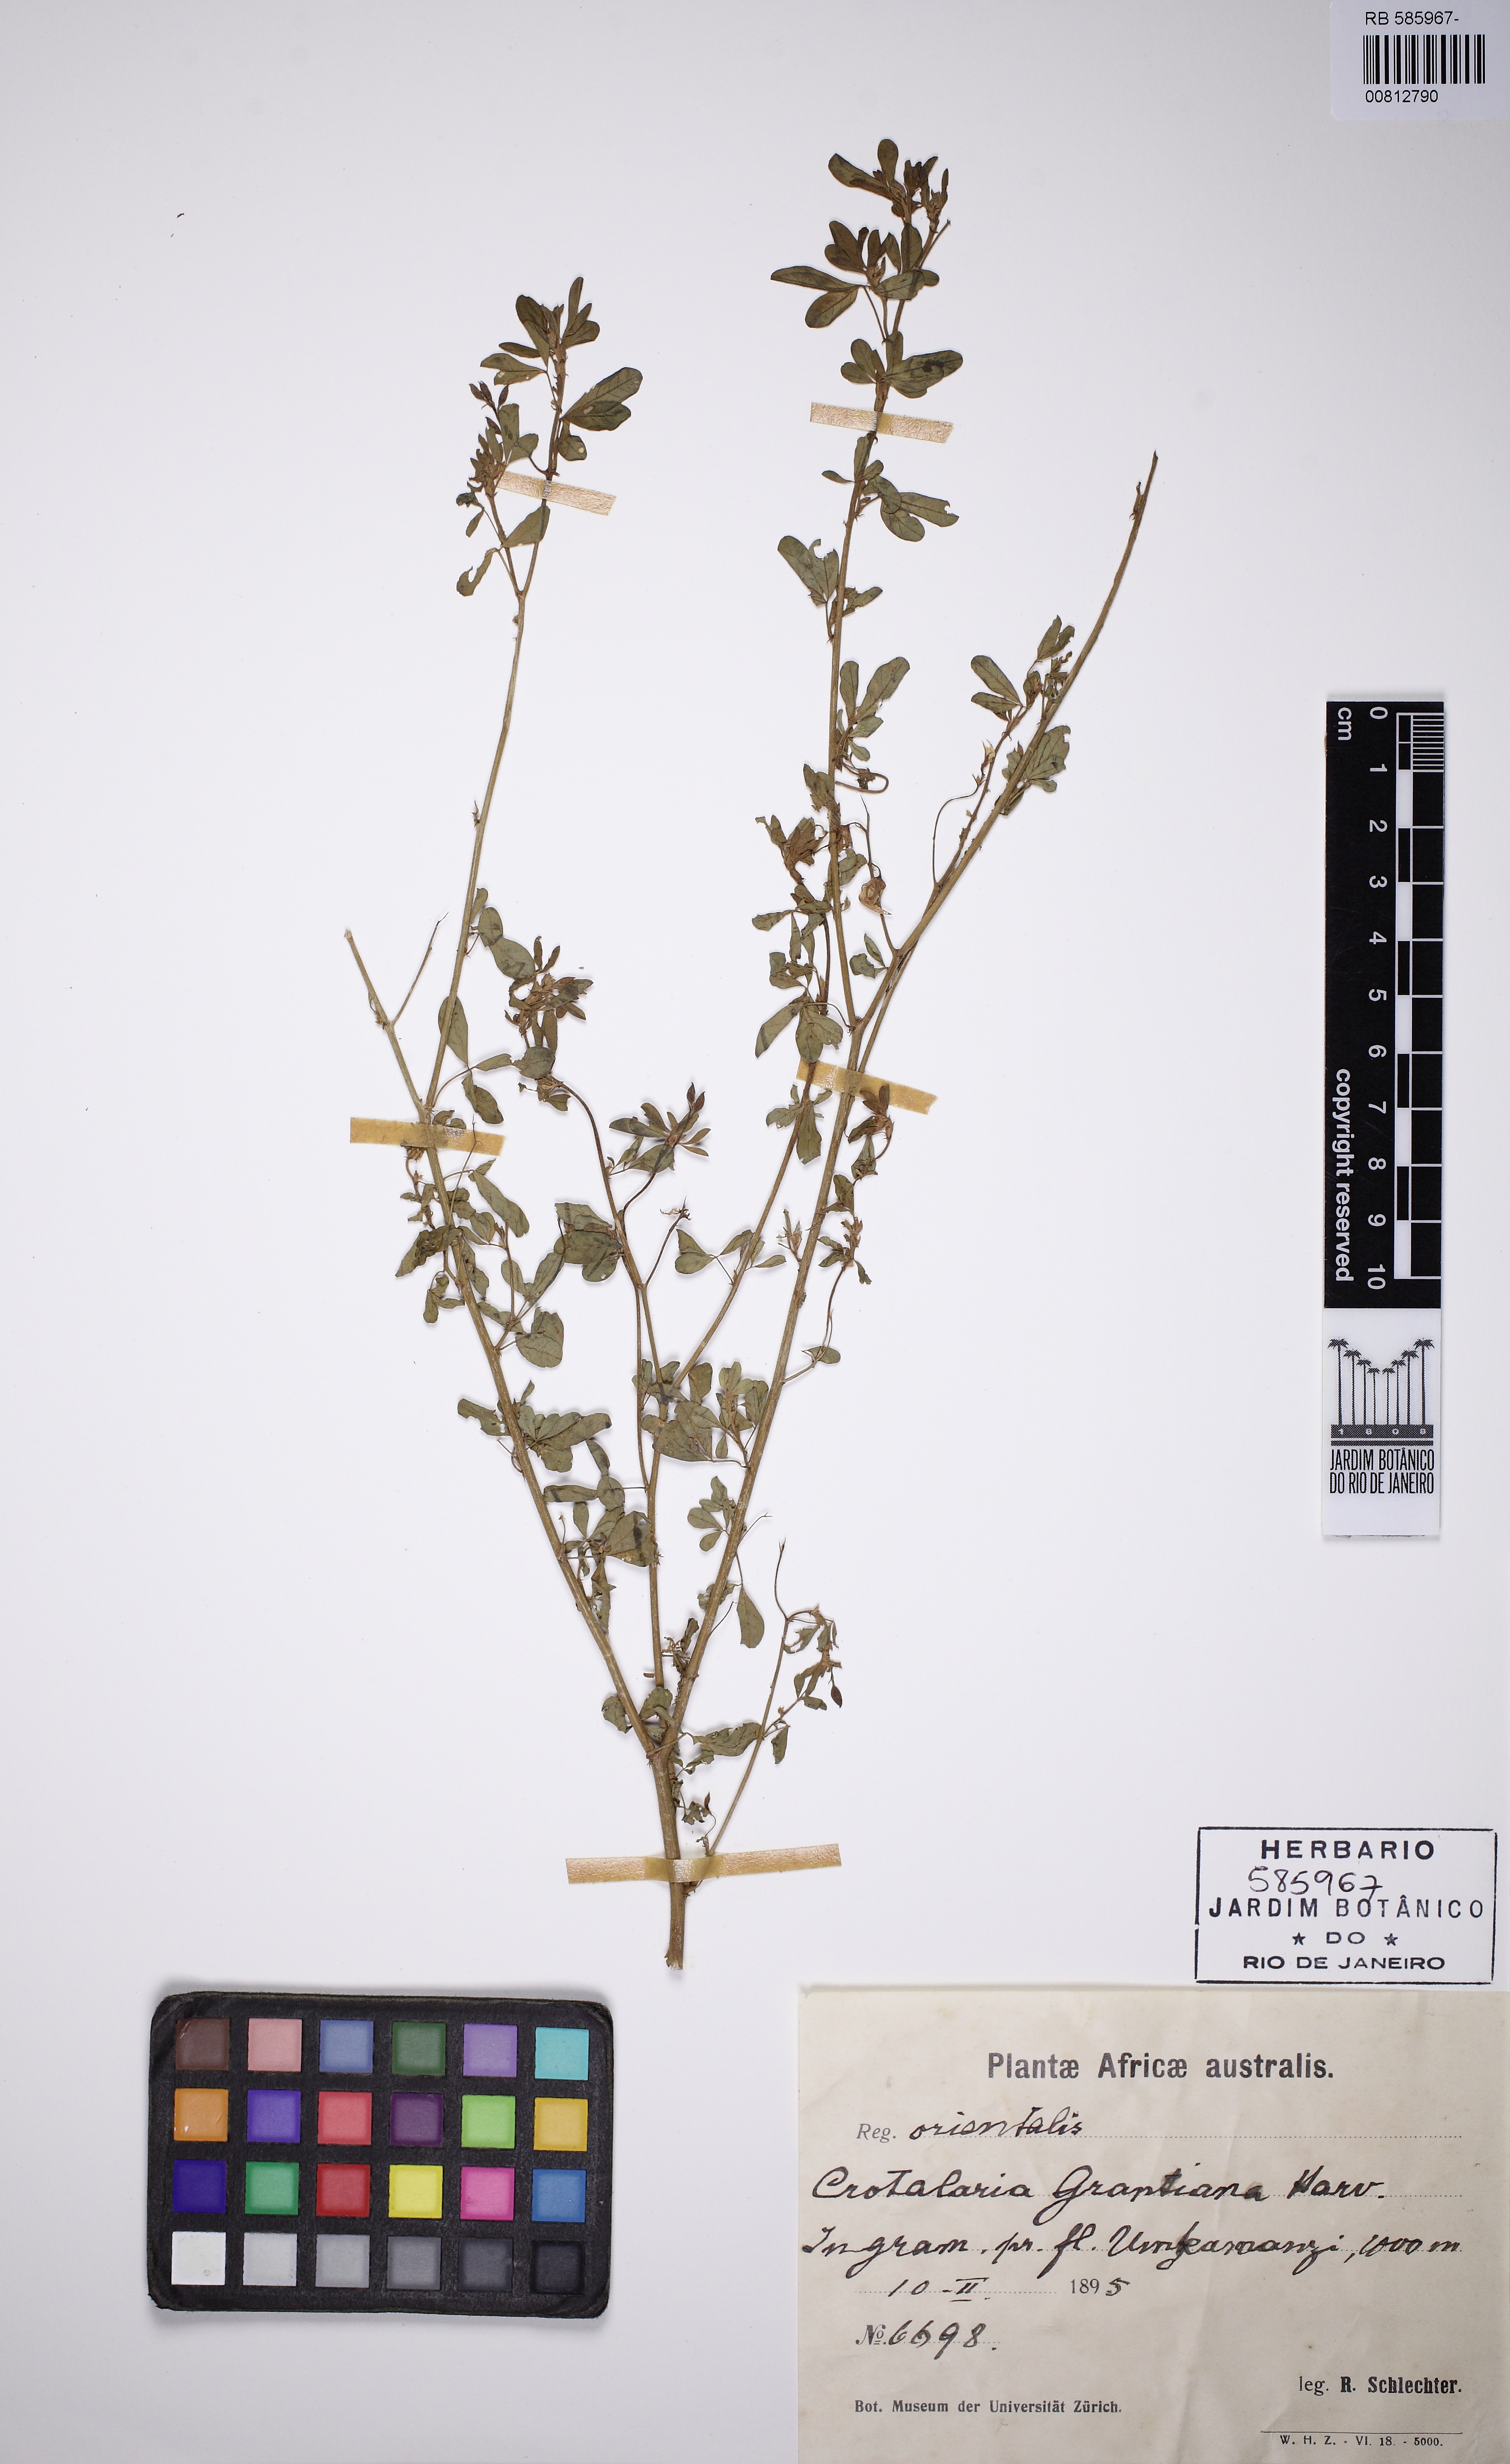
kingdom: Plantae
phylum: Tracheophyta
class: Magnoliopsida
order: Fabales
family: Fabaceae
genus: Crotalaria
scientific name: Crotalaria virgulata
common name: Thicket rattlebox
